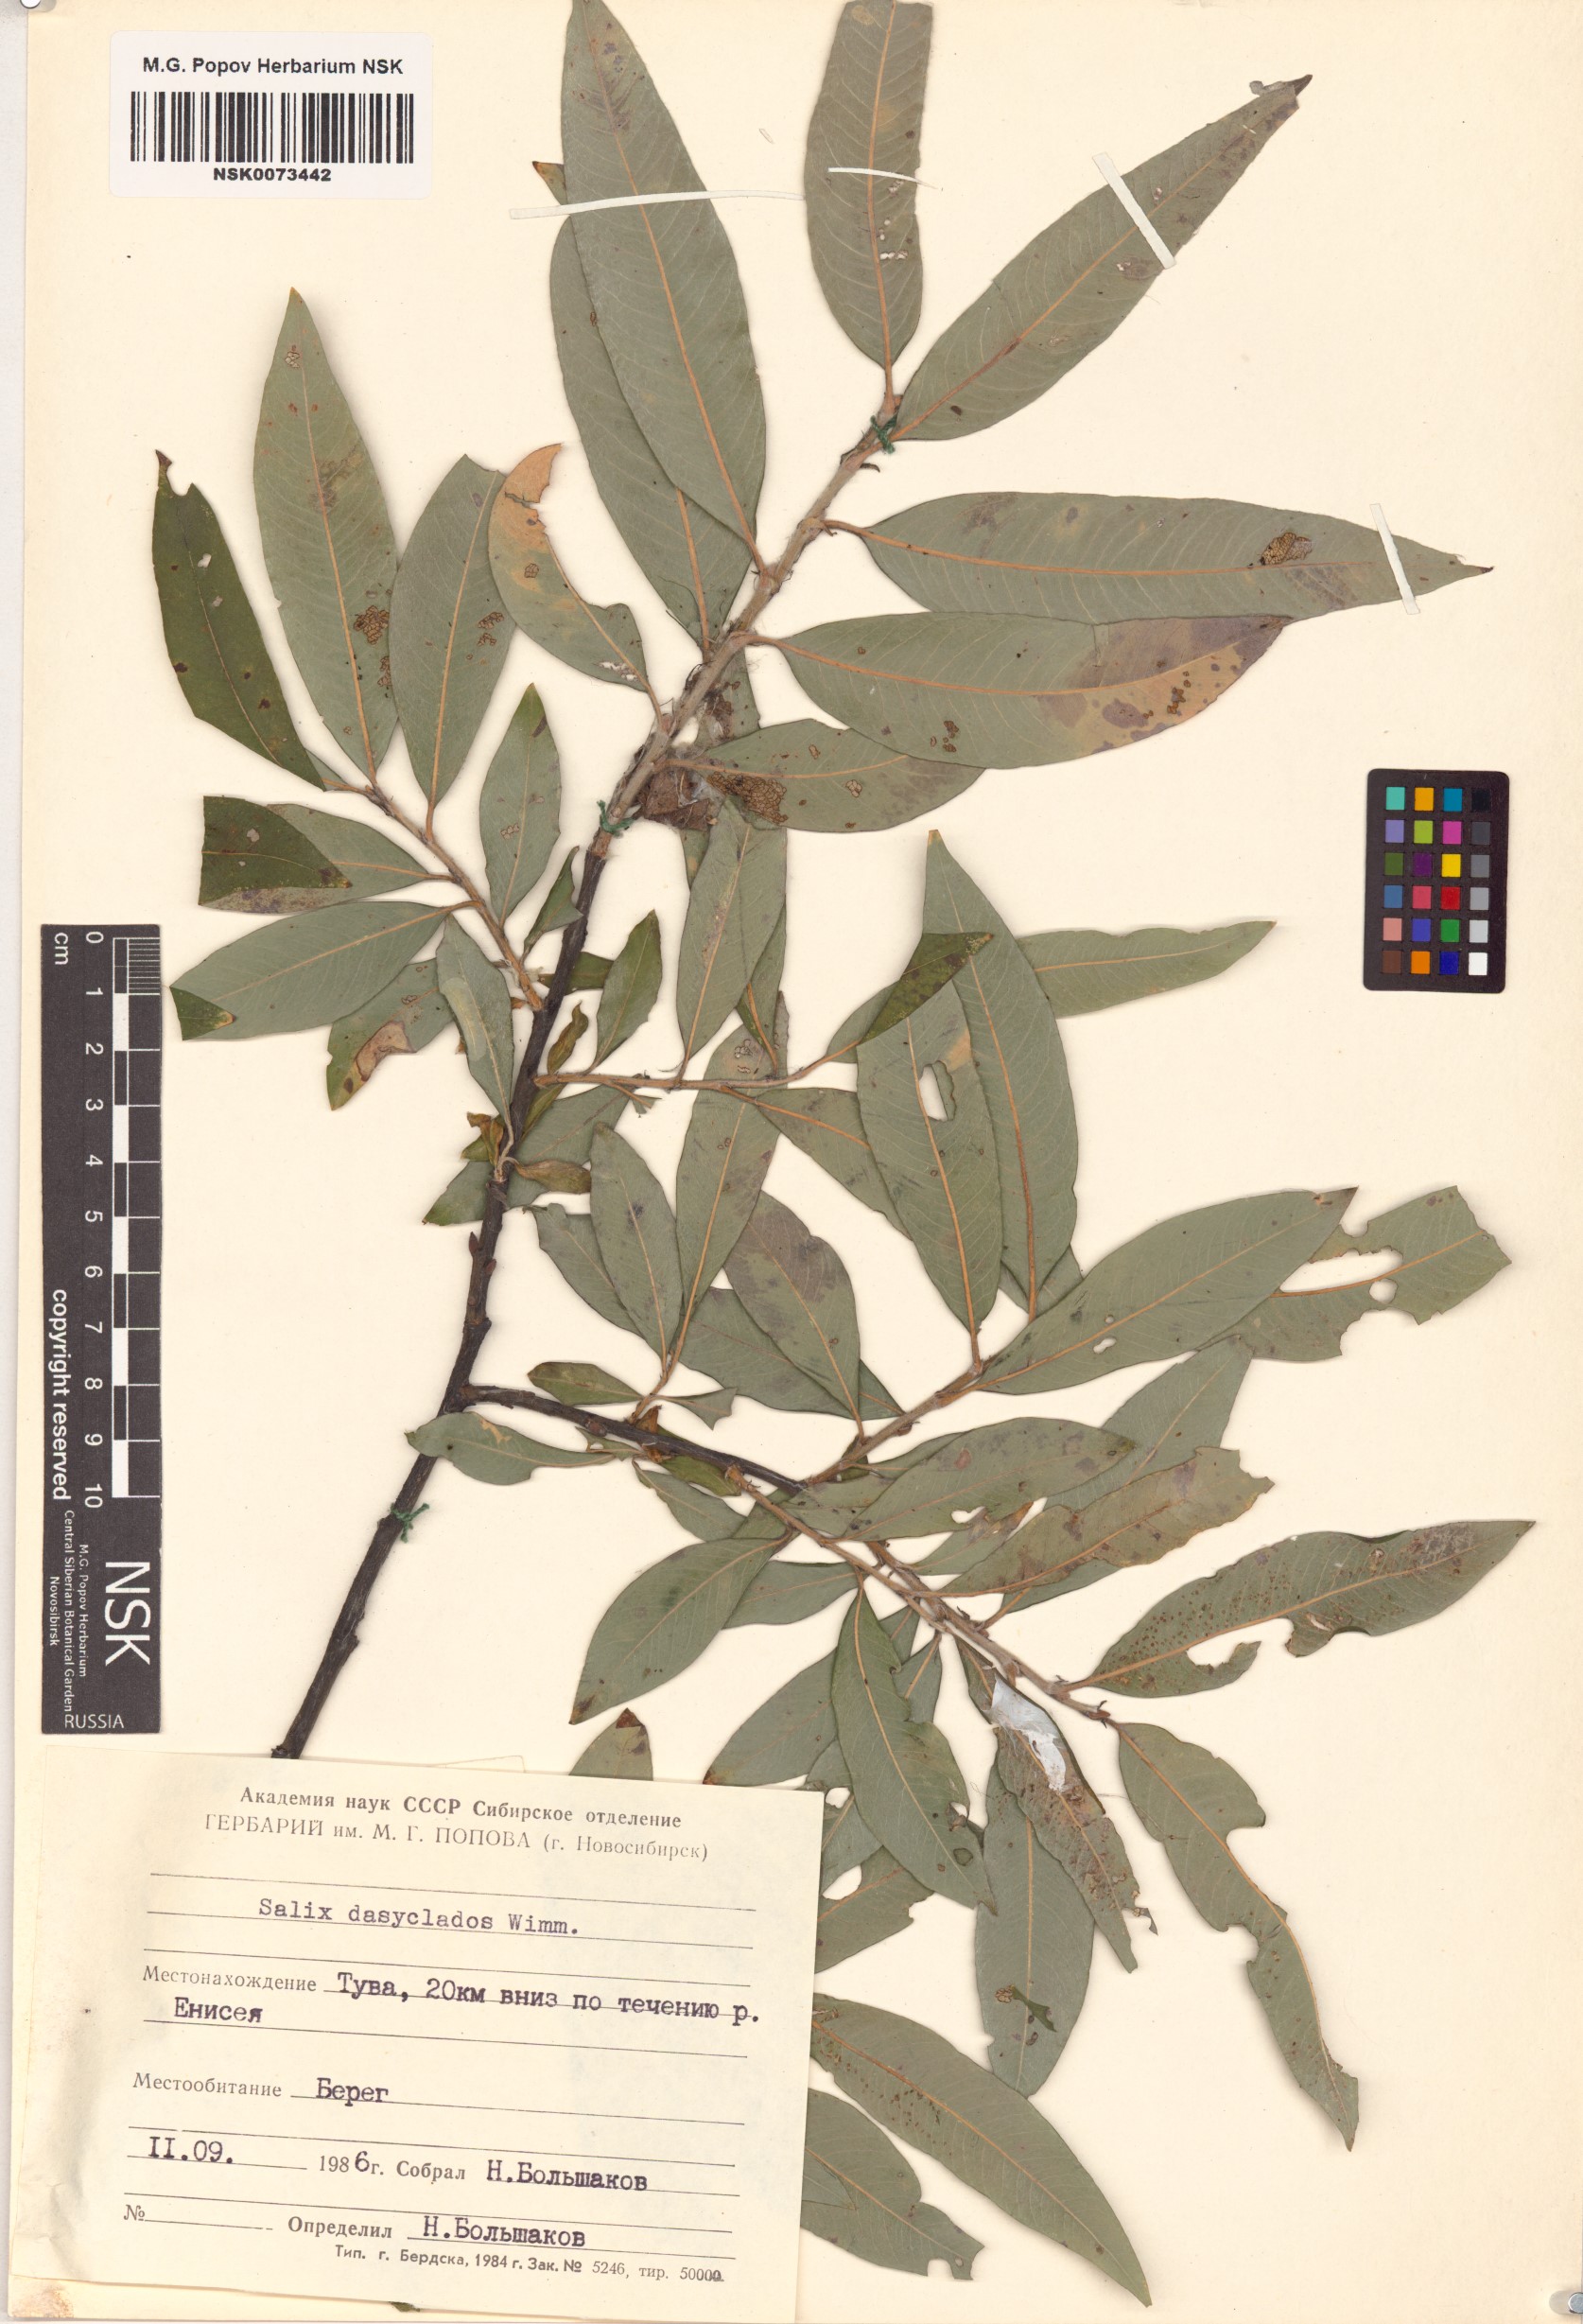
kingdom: Plantae
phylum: Tracheophyta
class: Magnoliopsida
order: Malpighiales
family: Salicaceae
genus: Salix
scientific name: Salix gmelinii
